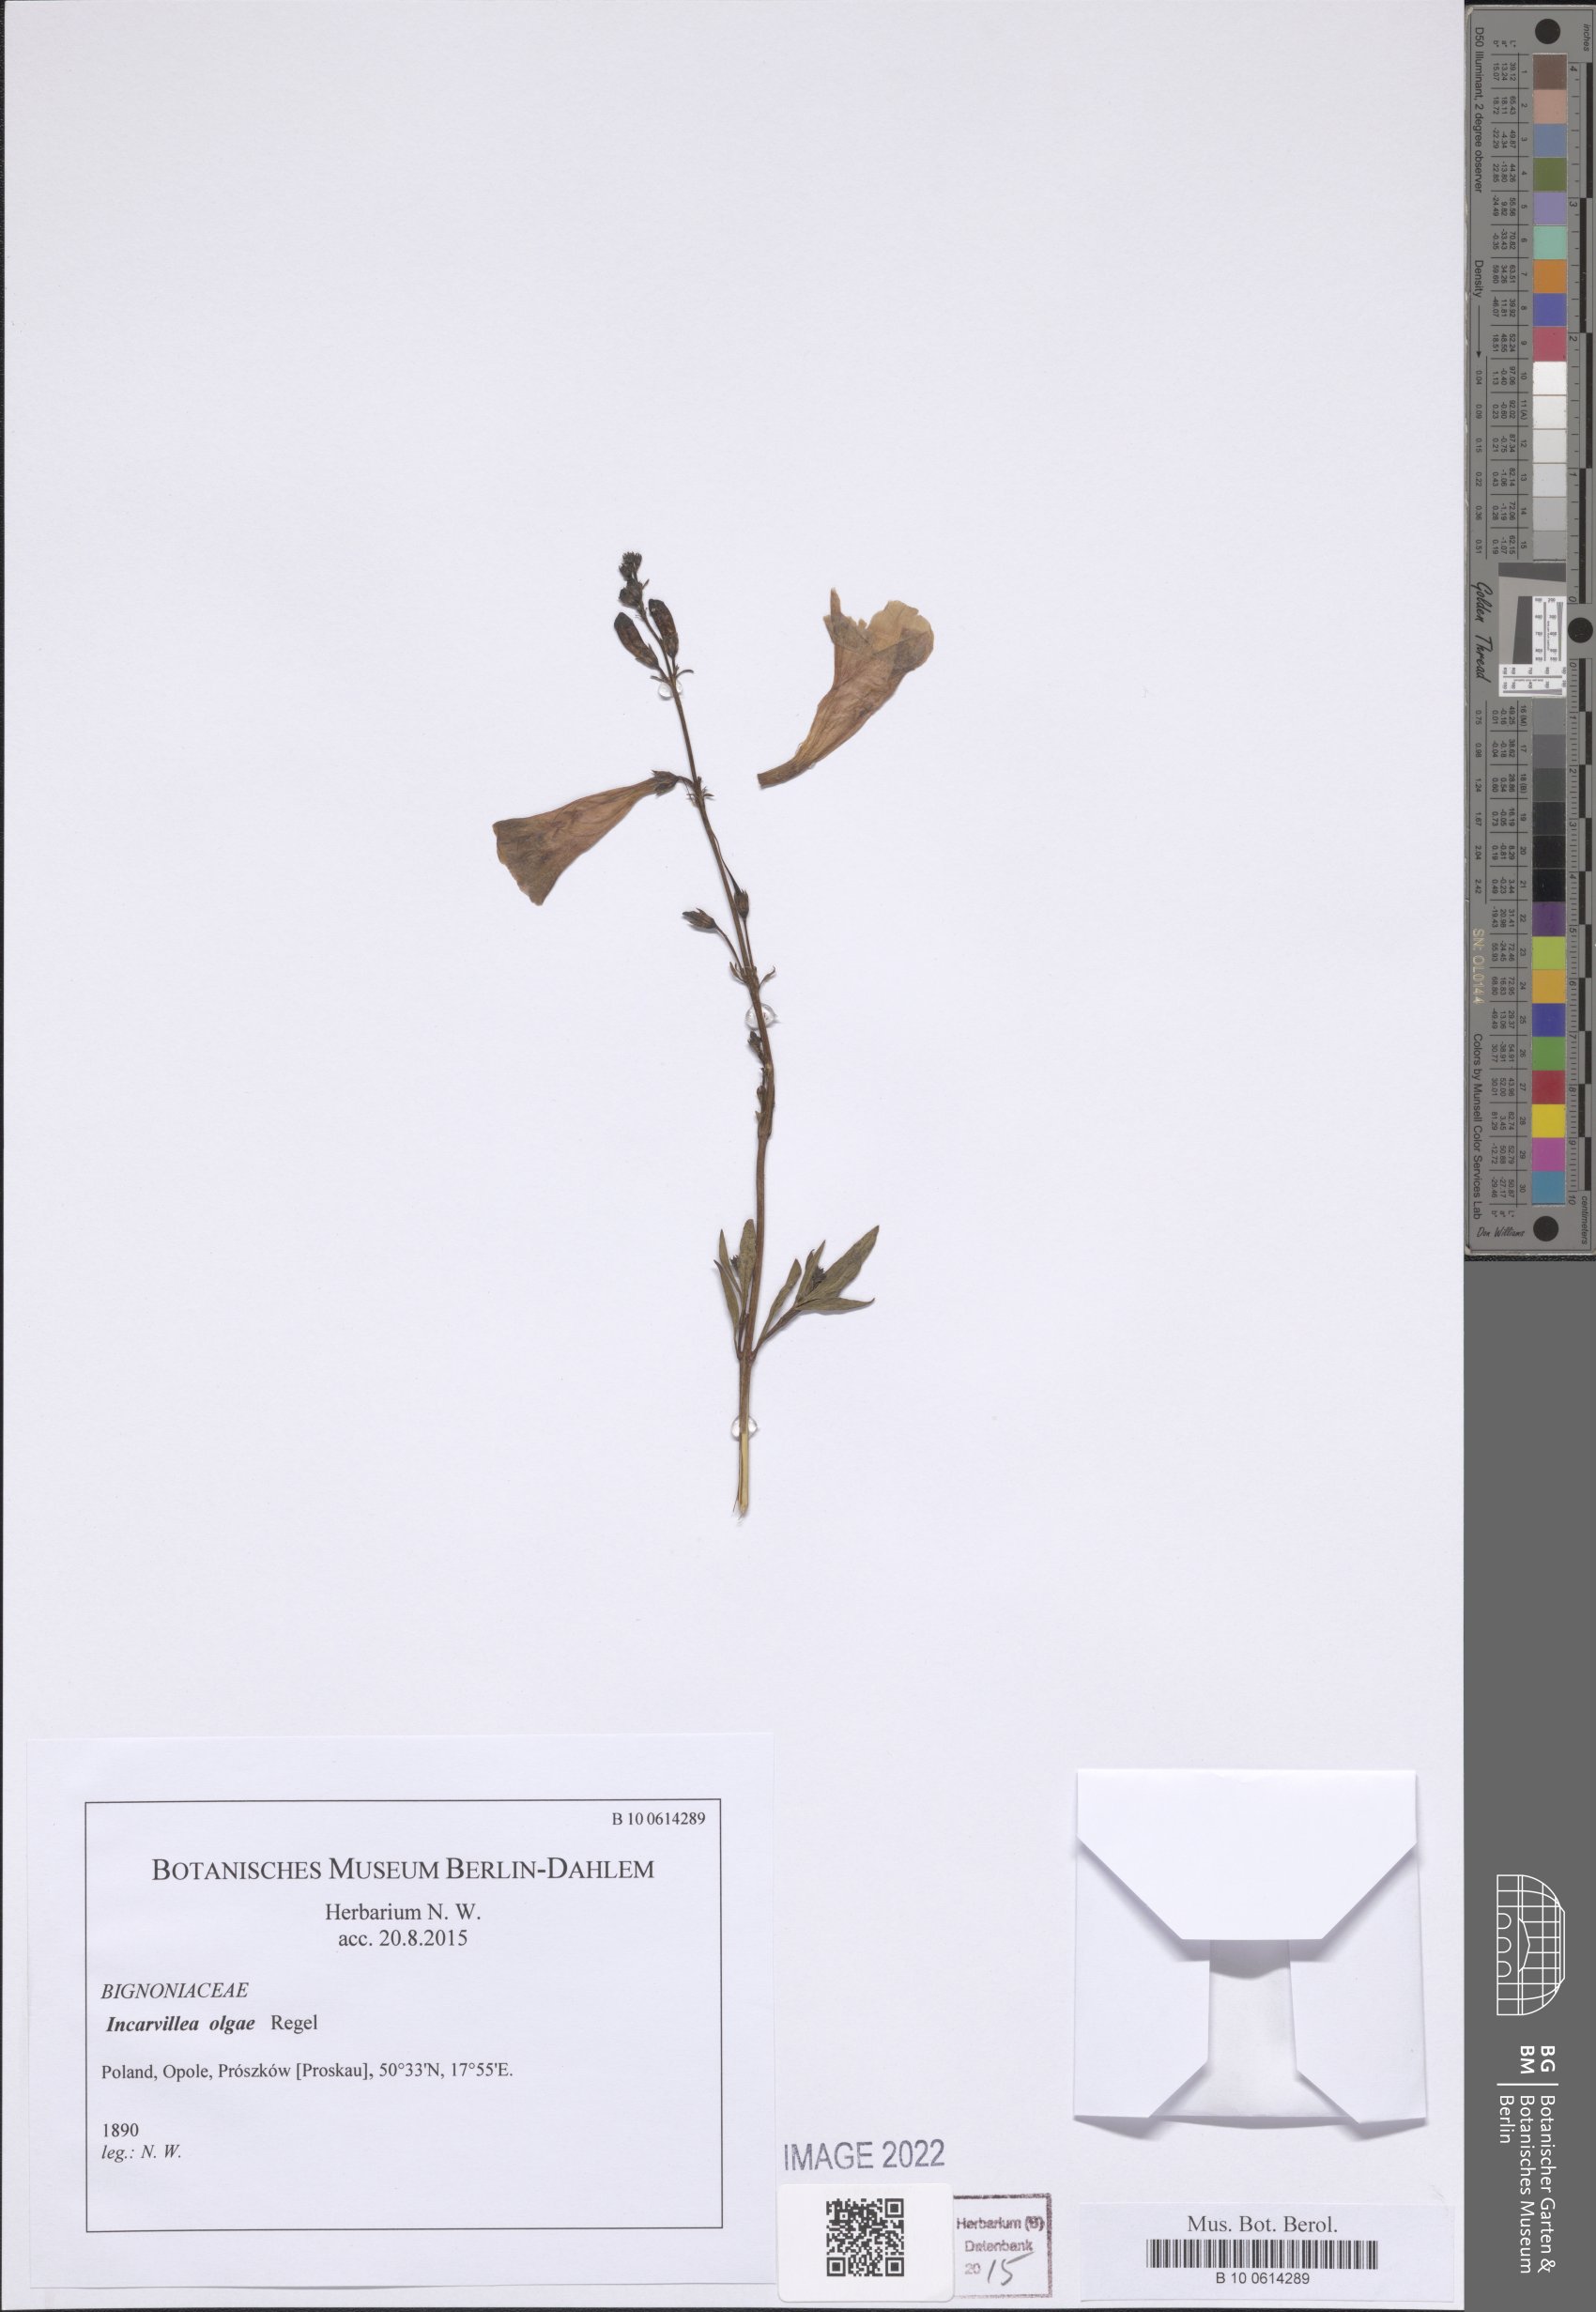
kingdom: Plantae
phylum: Tracheophyta
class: Magnoliopsida
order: Lamiales
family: Bignoniaceae
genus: Incarvillea
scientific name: Incarvillea olgae
